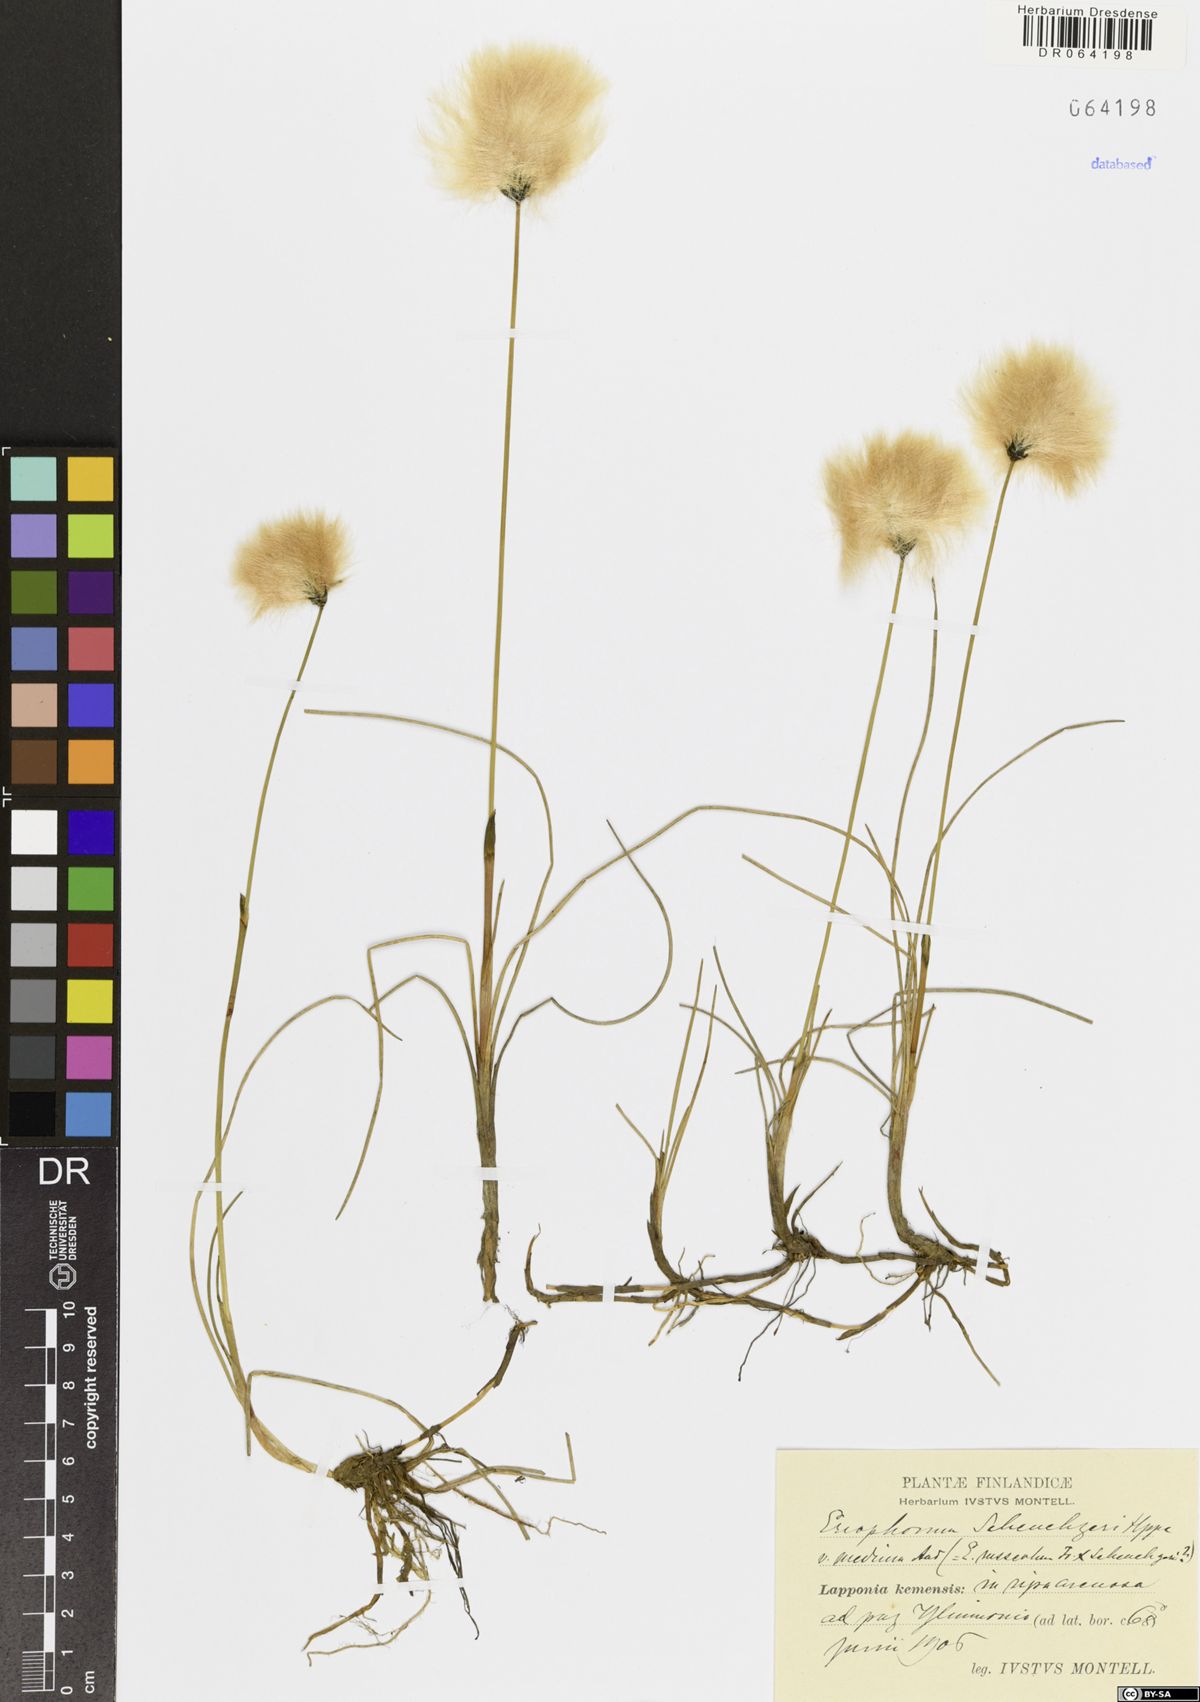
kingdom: Plantae
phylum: Tracheophyta
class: Liliopsida
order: Poales
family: Cyperaceae
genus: Eriophorum
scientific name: Eriophorum scheuchzeri
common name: Scheuchzer's cottongrass
